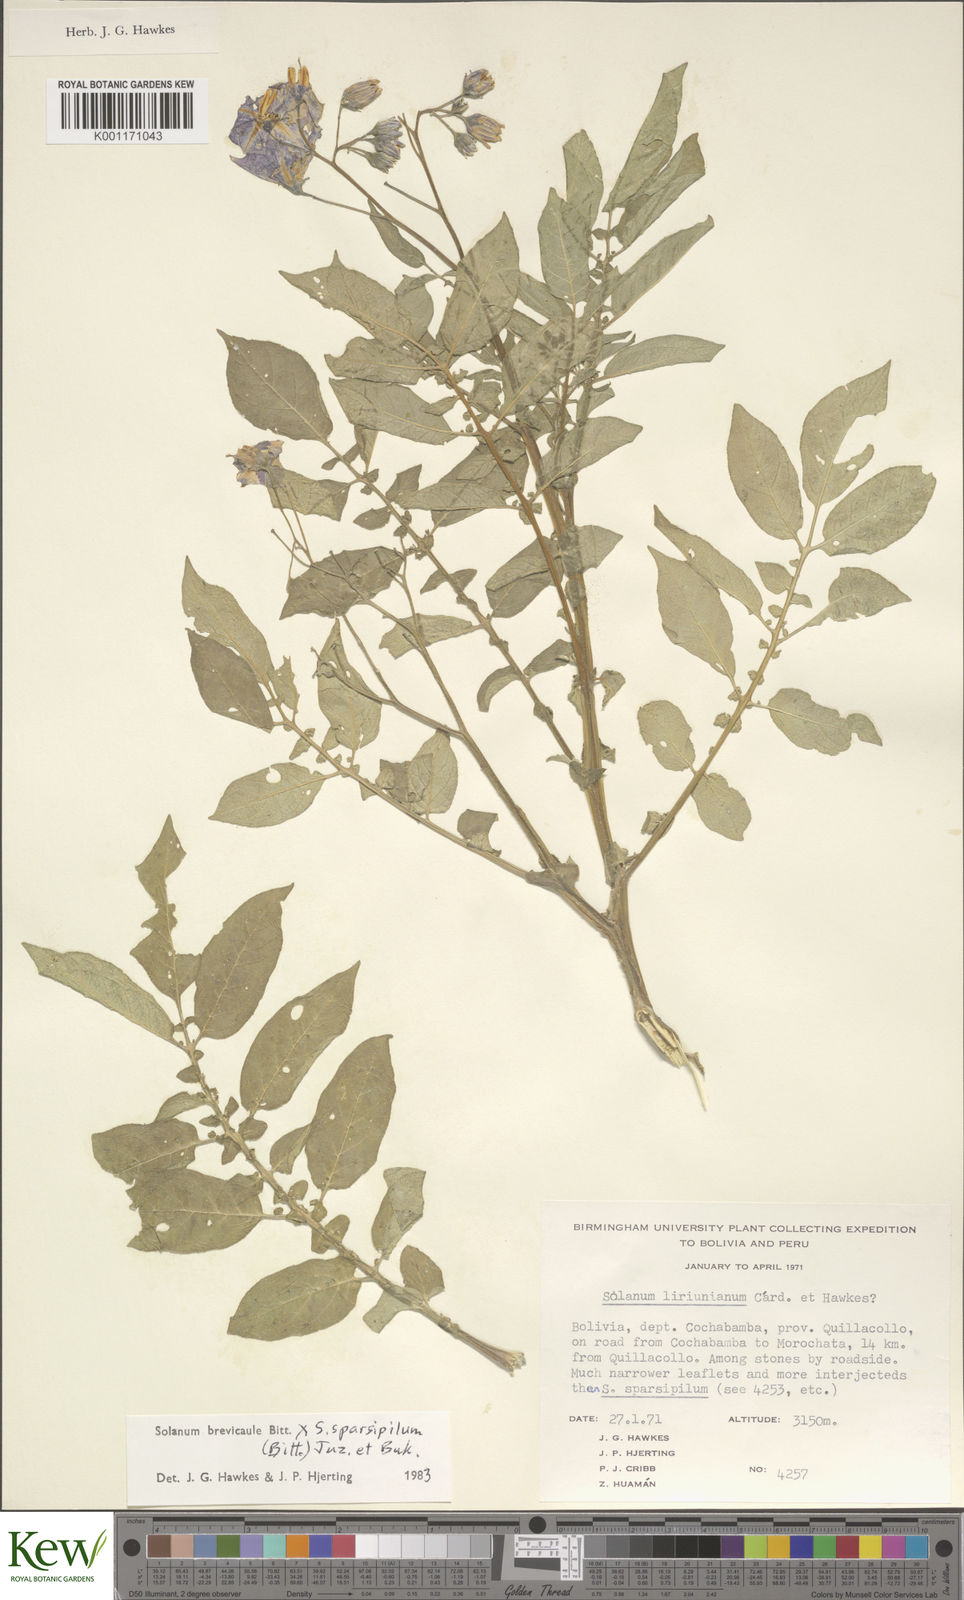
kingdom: Plantae
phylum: Tracheophyta
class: Magnoliopsida
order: Solanales
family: Solanaceae
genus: Solanum
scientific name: Solanum brevicaule
